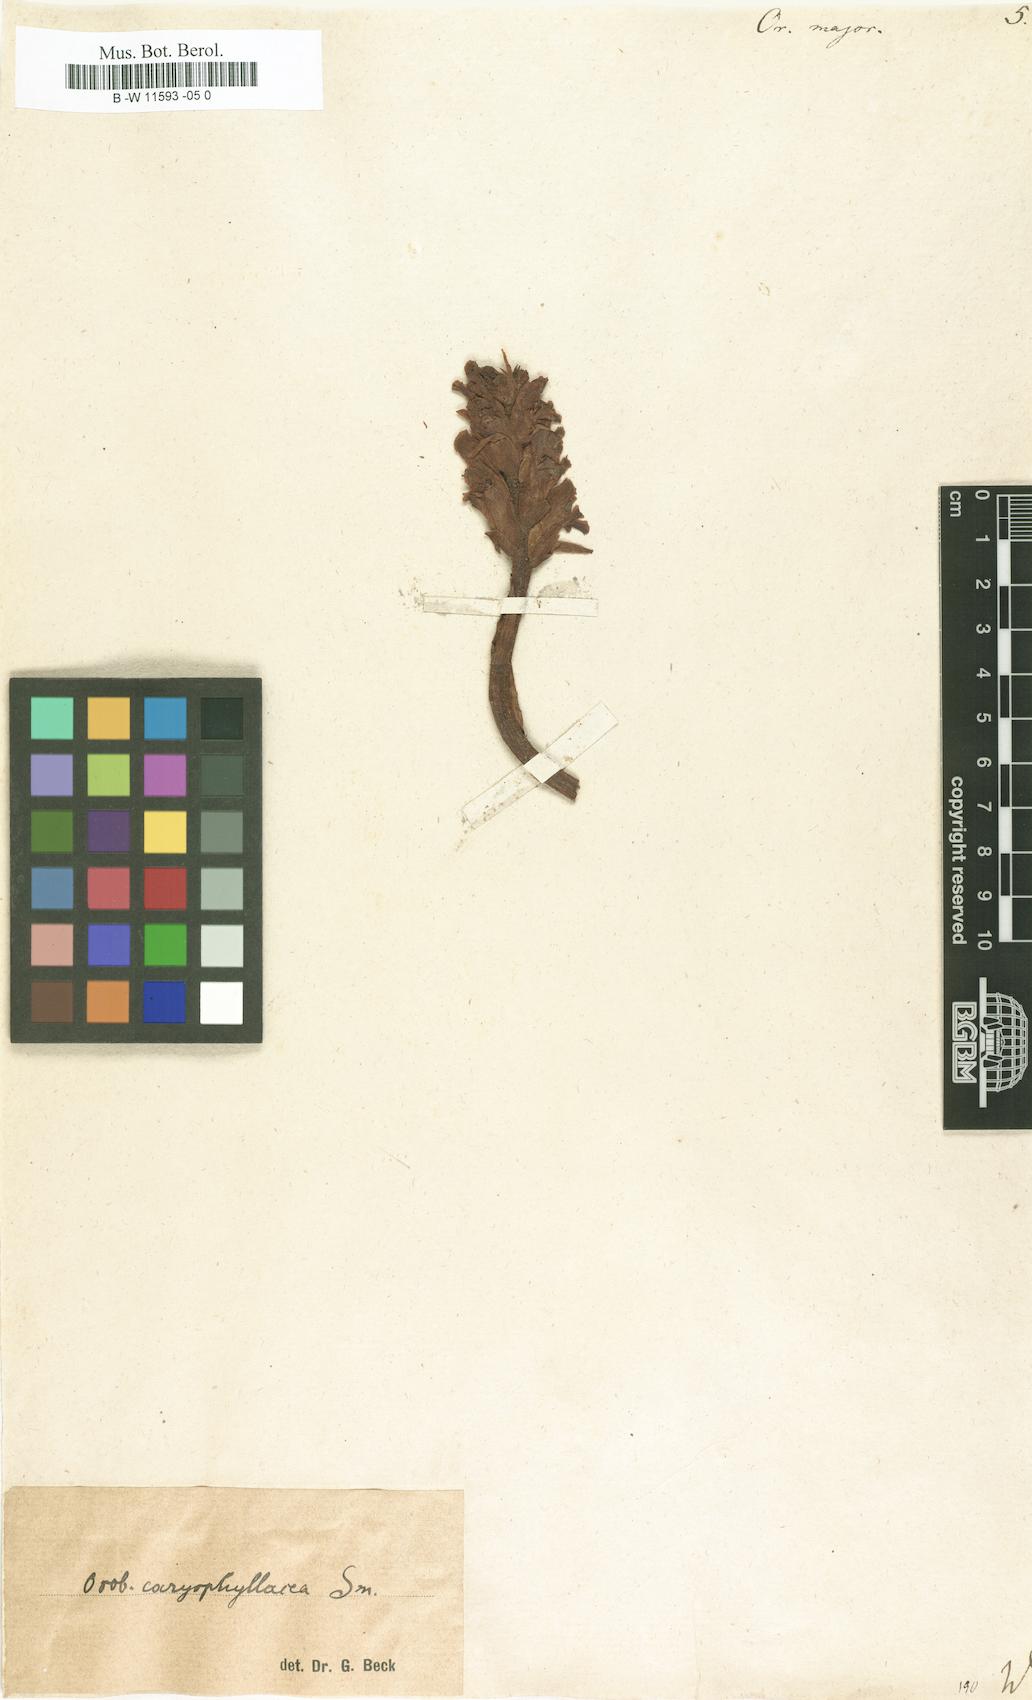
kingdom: Plantae
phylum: Tracheophyta
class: Magnoliopsida
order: Lamiales
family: Orobanchaceae
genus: Orobanche
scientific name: Orobanche major
